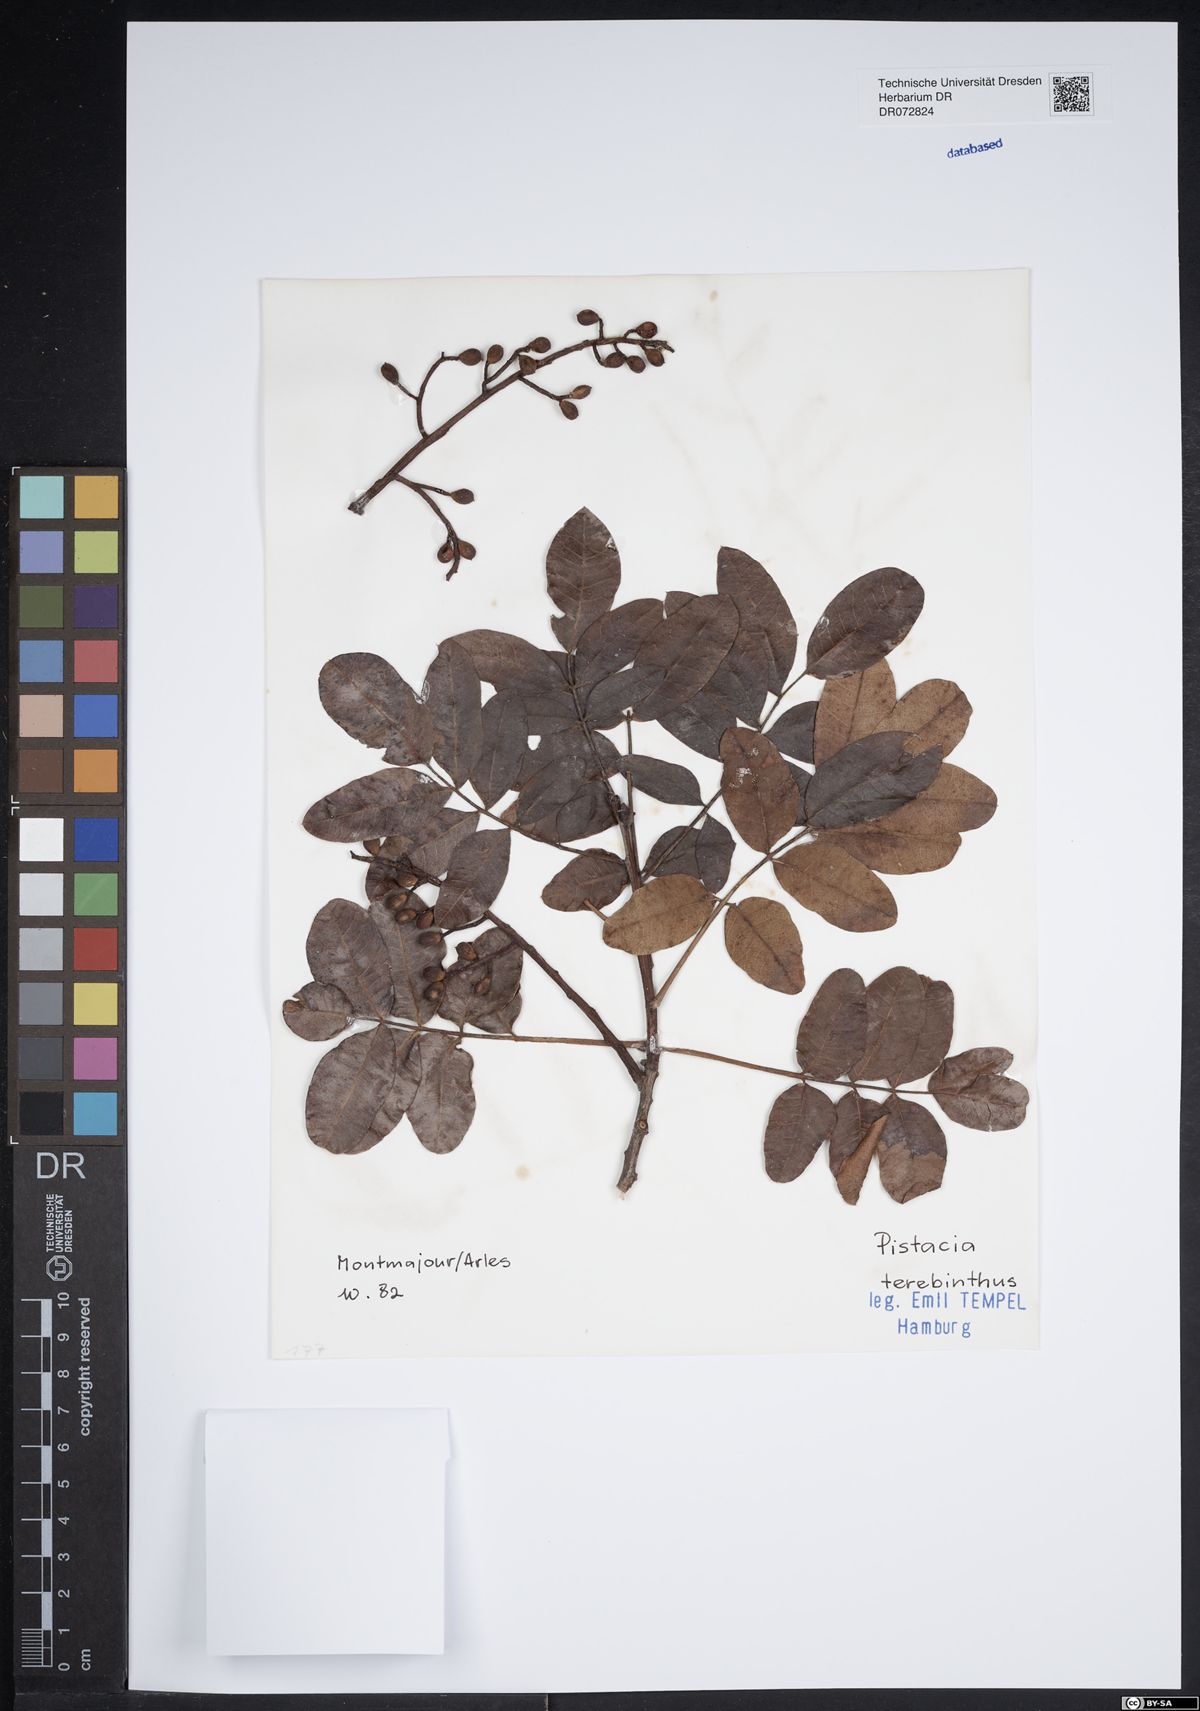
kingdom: Plantae
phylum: Tracheophyta
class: Magnoliopsida
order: Sapindales
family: Anacardiaceae
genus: Pistacia
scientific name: Pistacia terebinthus
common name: Terebinth
